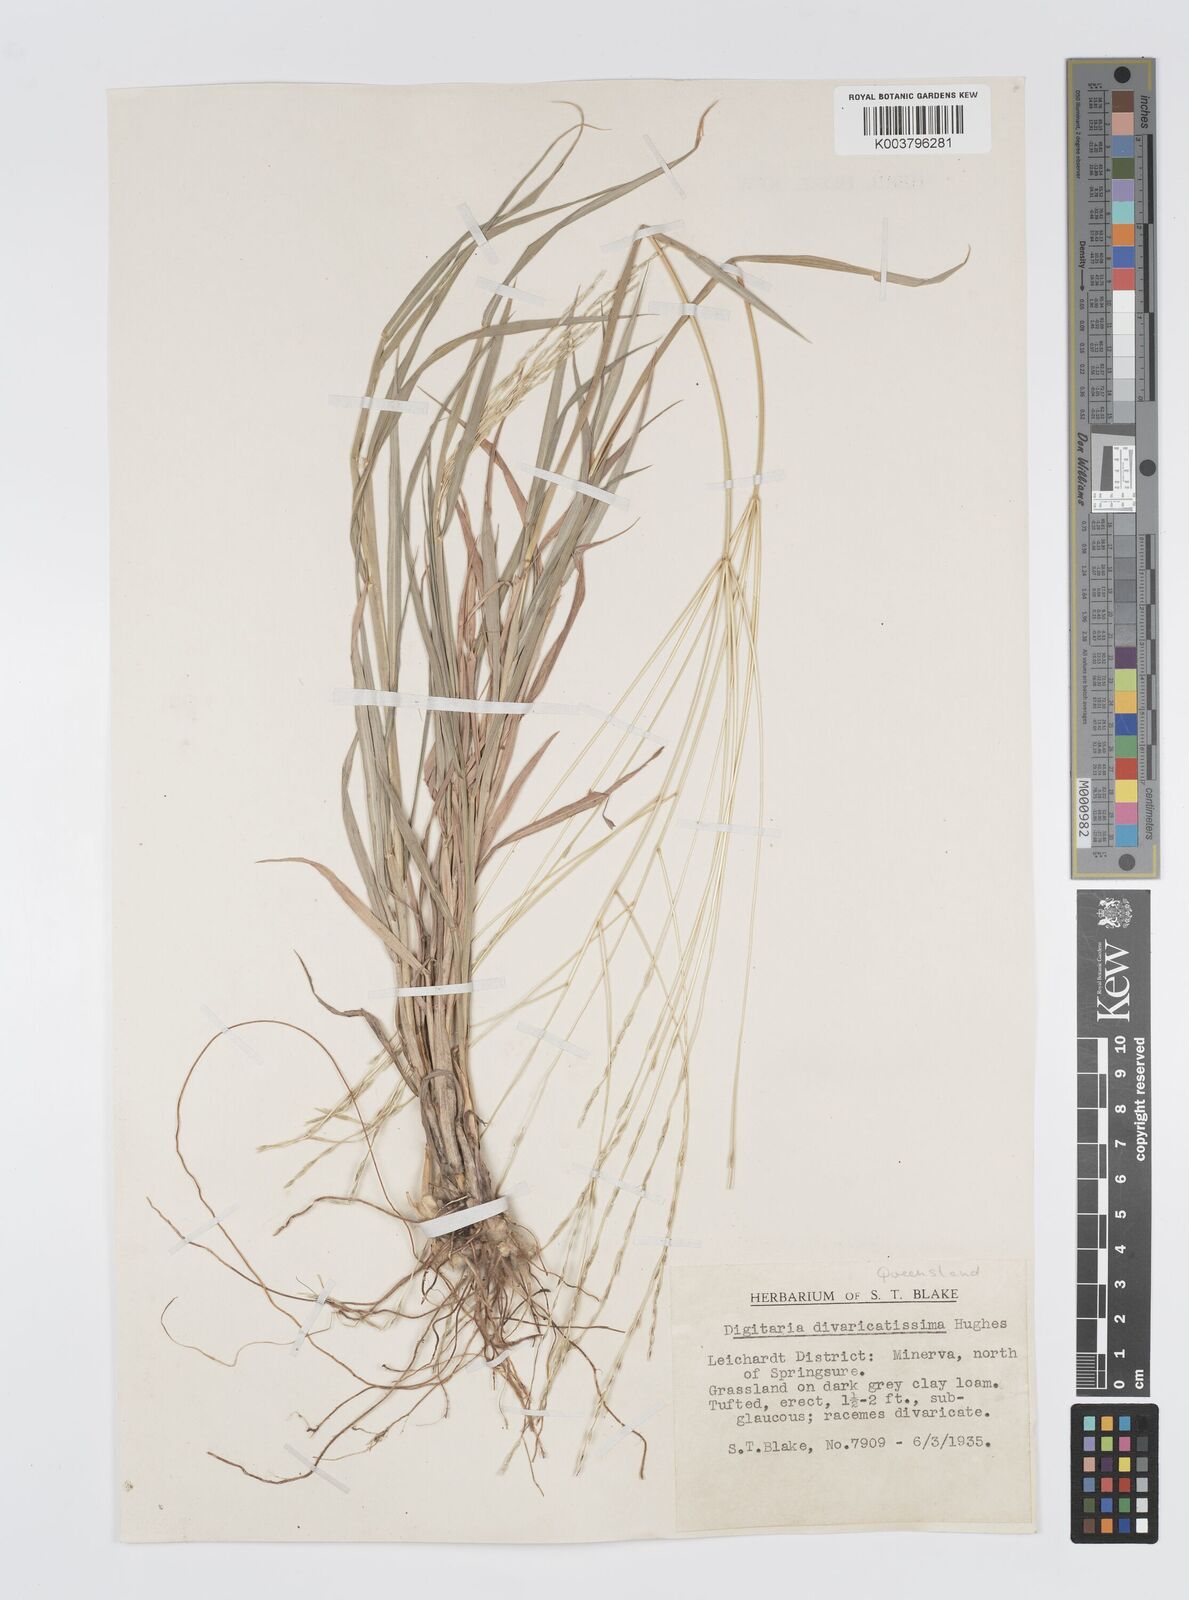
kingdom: Plantae
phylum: Tracheophyta
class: Liliopsida
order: Poales
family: Poaceae
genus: Digitaria
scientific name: Digitaria divaricatissima
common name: Crabgrass
